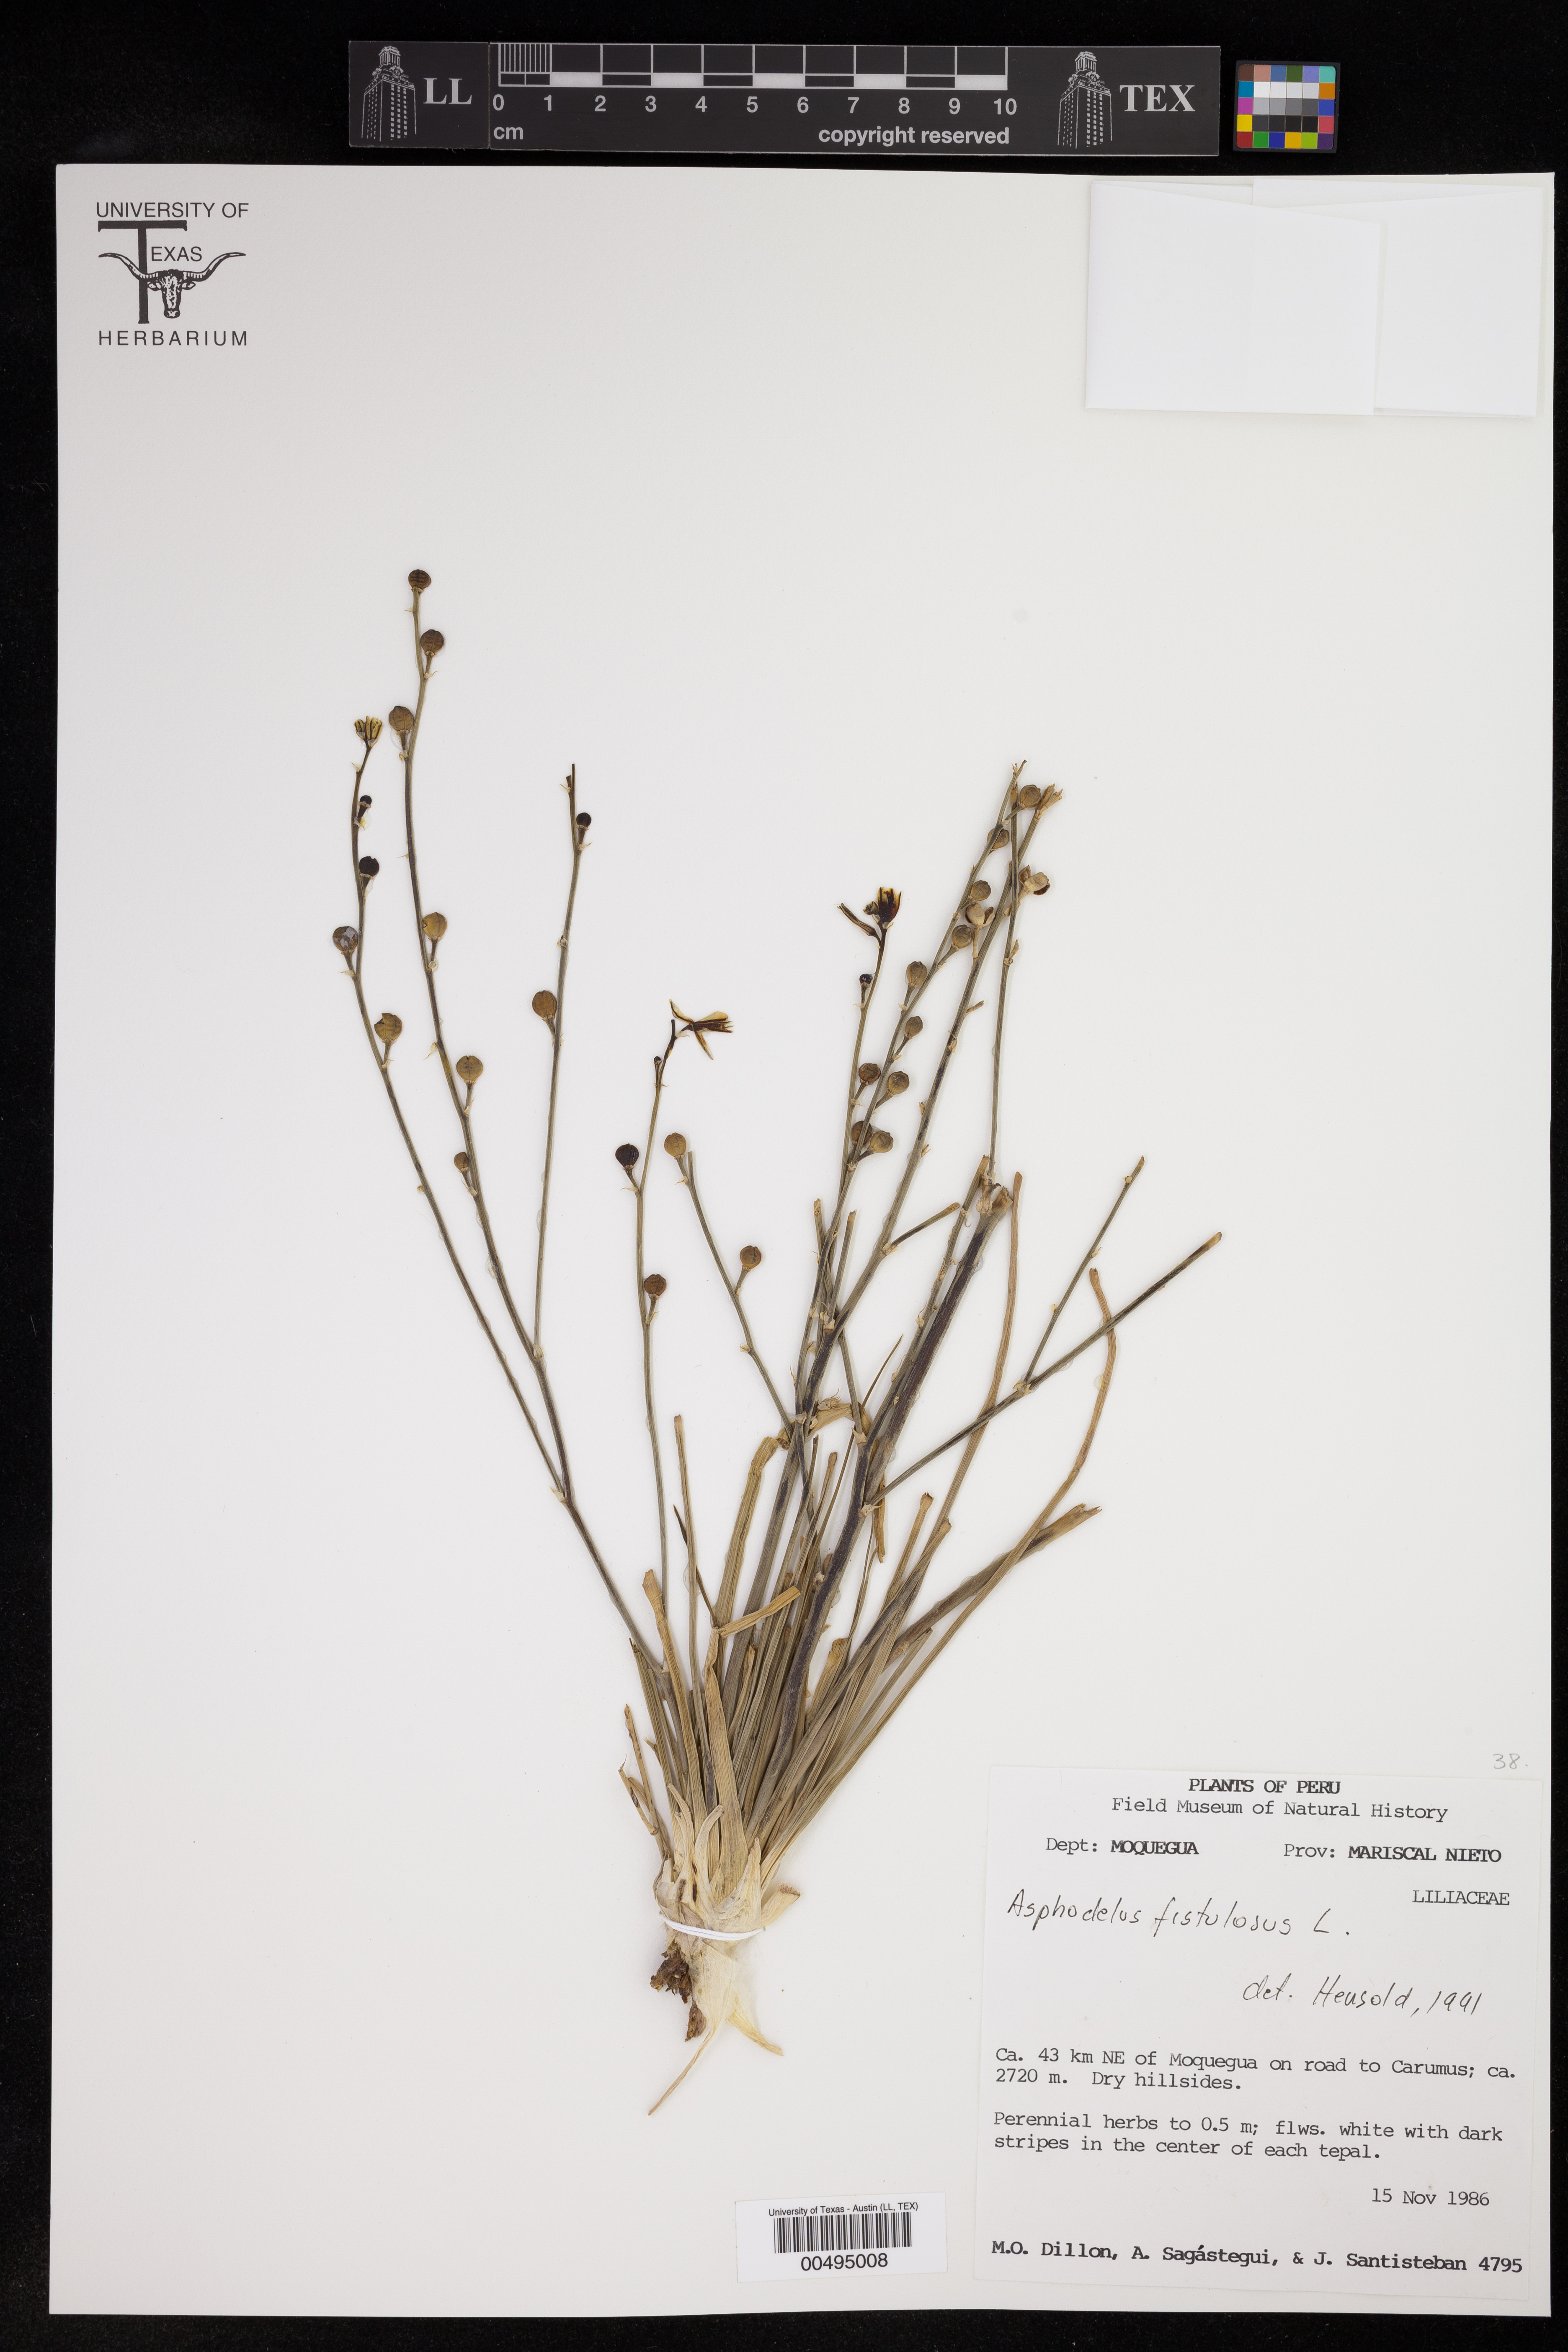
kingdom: Plantae
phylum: Tracheophyta
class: Liliopsida
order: Asparagales
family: Asphodelaceae
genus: Asphodelus
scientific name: Asphodelus fistulosus
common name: Onionweed
